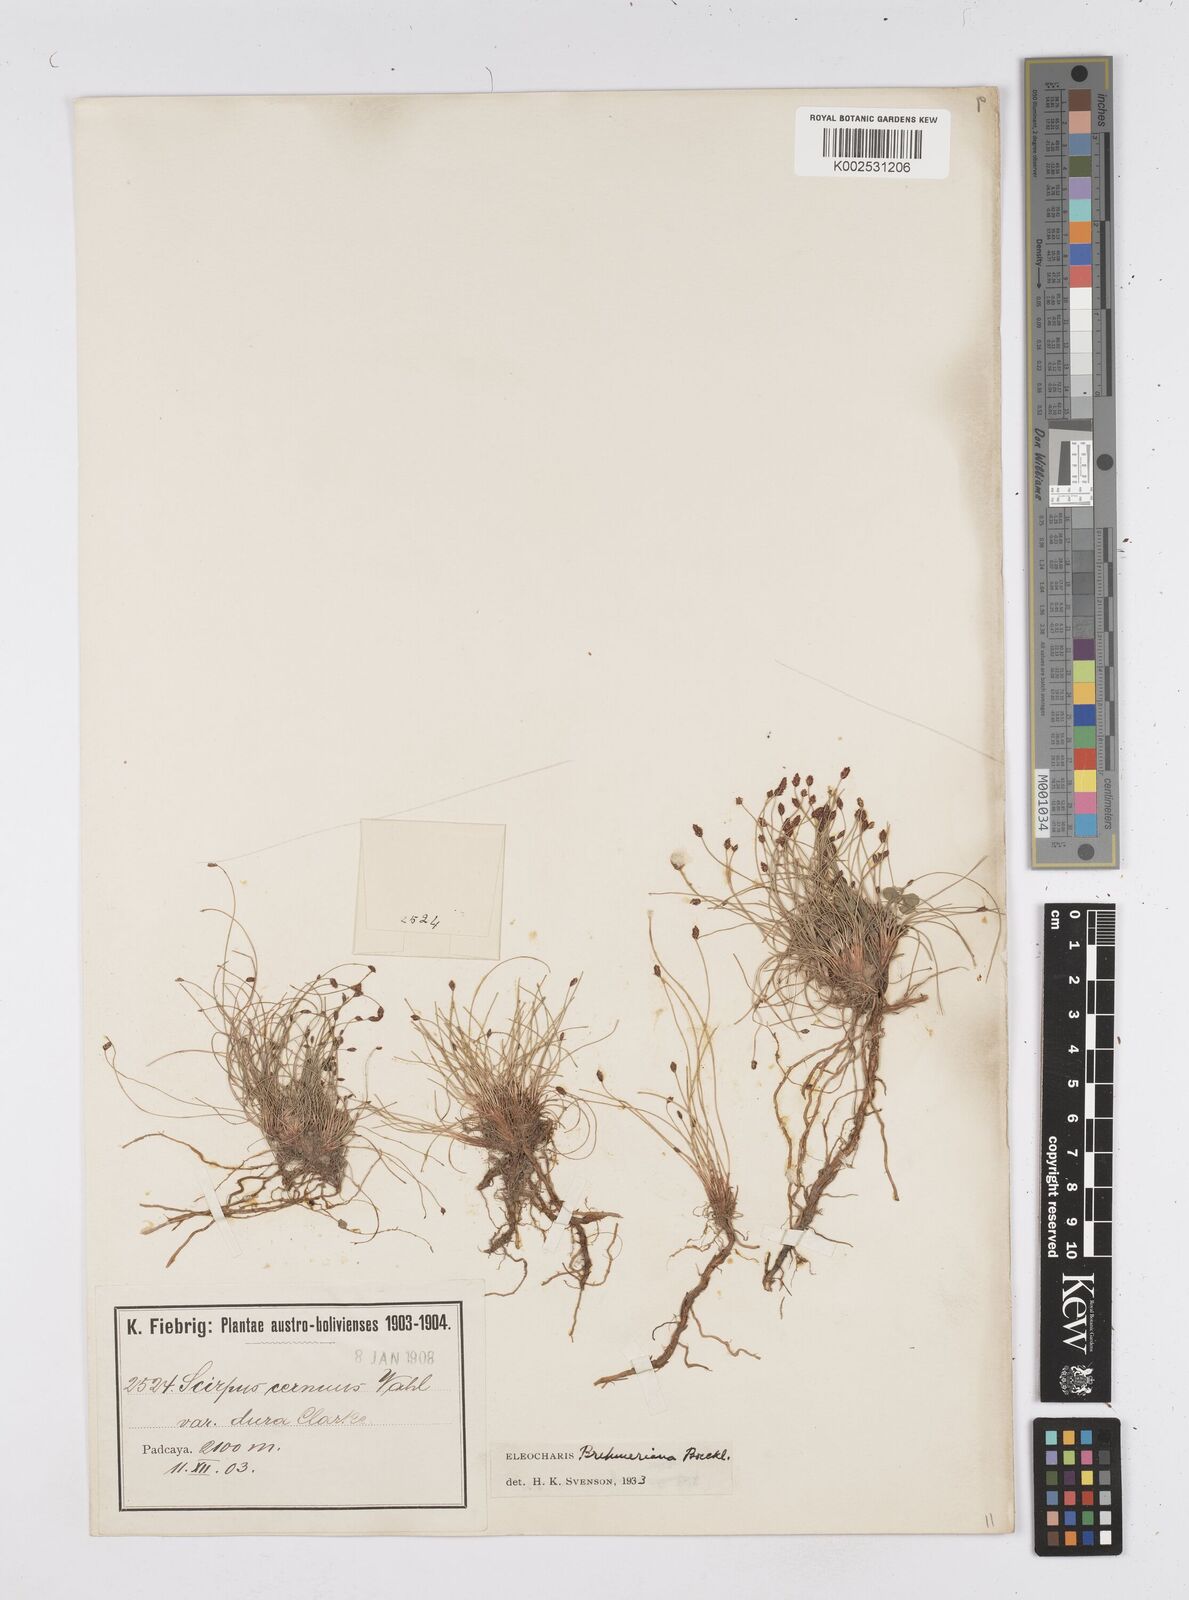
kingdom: Plantae
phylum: Tracheophyta
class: Liliopsida
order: Poales
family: Cyperaceae
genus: Eleocharis
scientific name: Eleocharis crinalis
